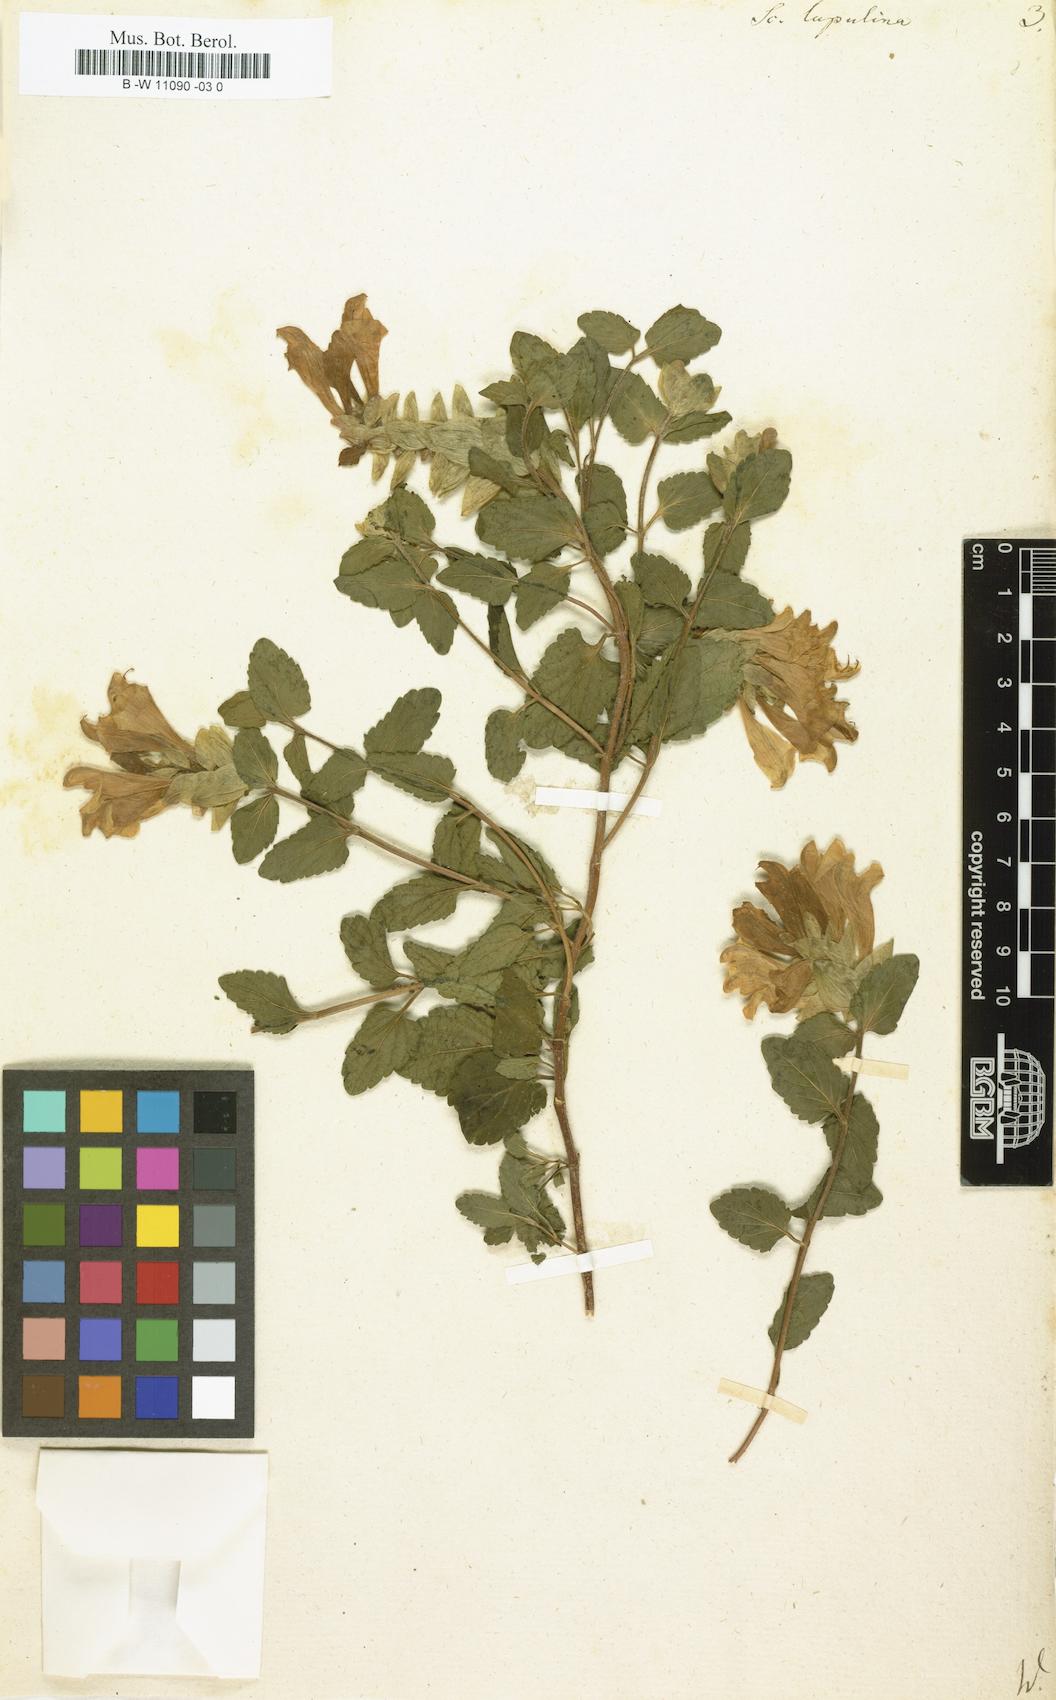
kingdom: Plantae
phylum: Tracheophyta
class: Magnoliopsida
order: Lamiales
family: Lamiaceae
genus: Scutellaria
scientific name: Scutellaria alpina
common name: Alpine scullcap
